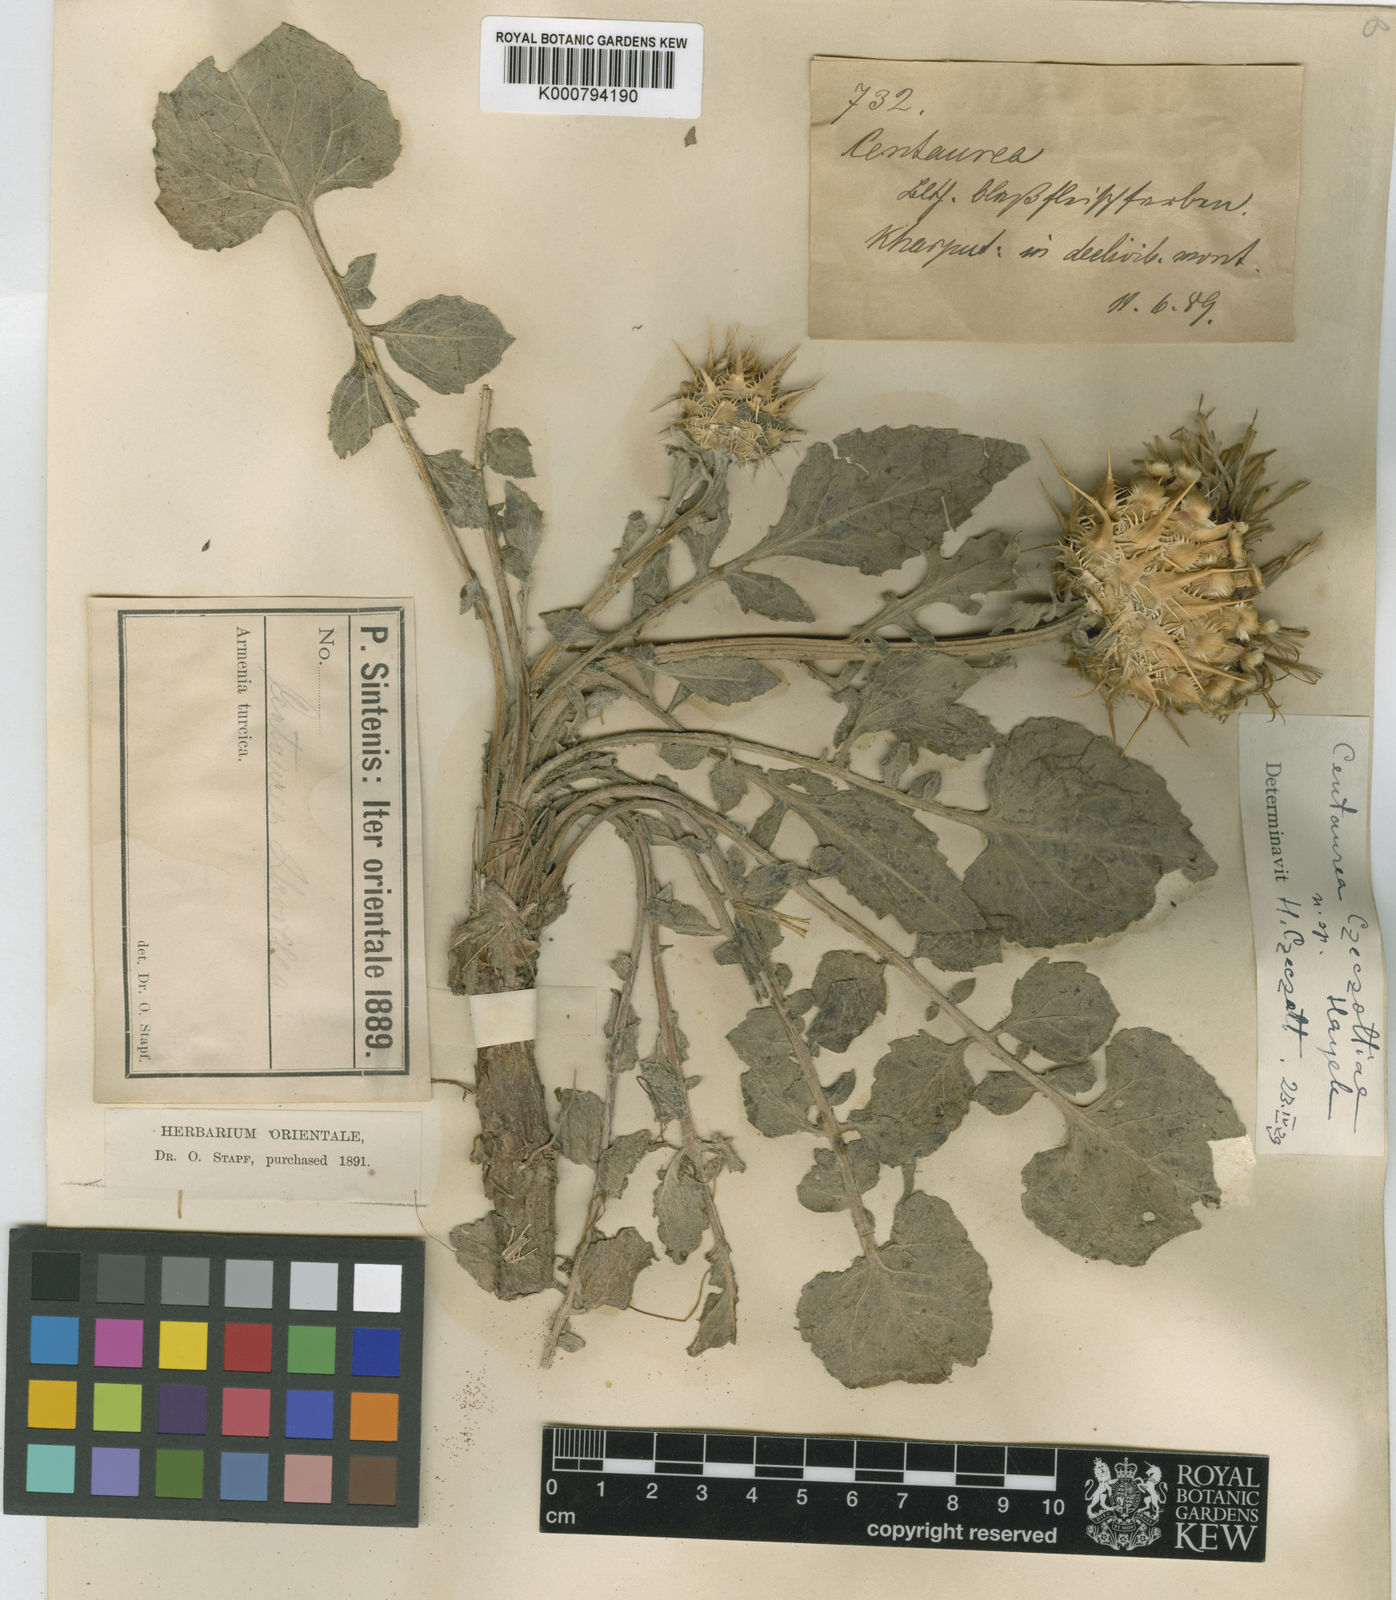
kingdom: Plantae
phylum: Tracheophyta
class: Magnoliopsida
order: Asterales
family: Asteraceae
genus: Centaurea
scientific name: Centaurea urvillei
